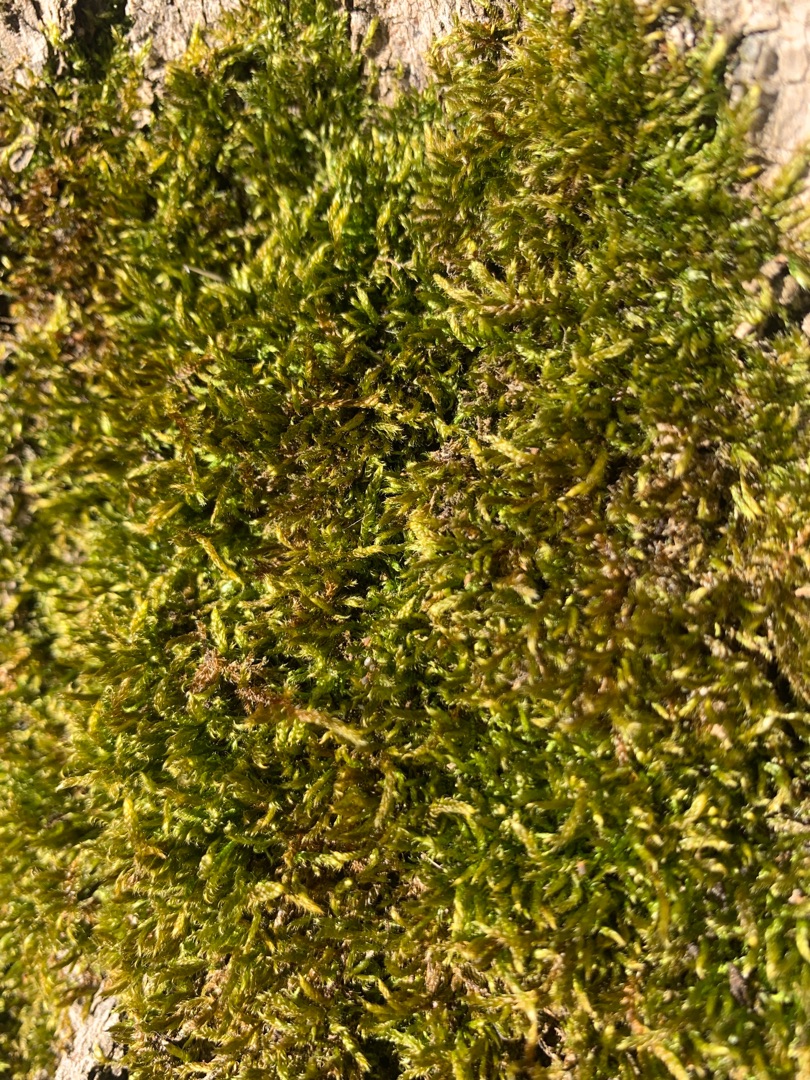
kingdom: Plantae
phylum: Bryophyta
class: Bryopsida
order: Hypnales
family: Hypnaceae
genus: Hypnum
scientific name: Hypnum cupressiforme
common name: Almindelig cypresmos
